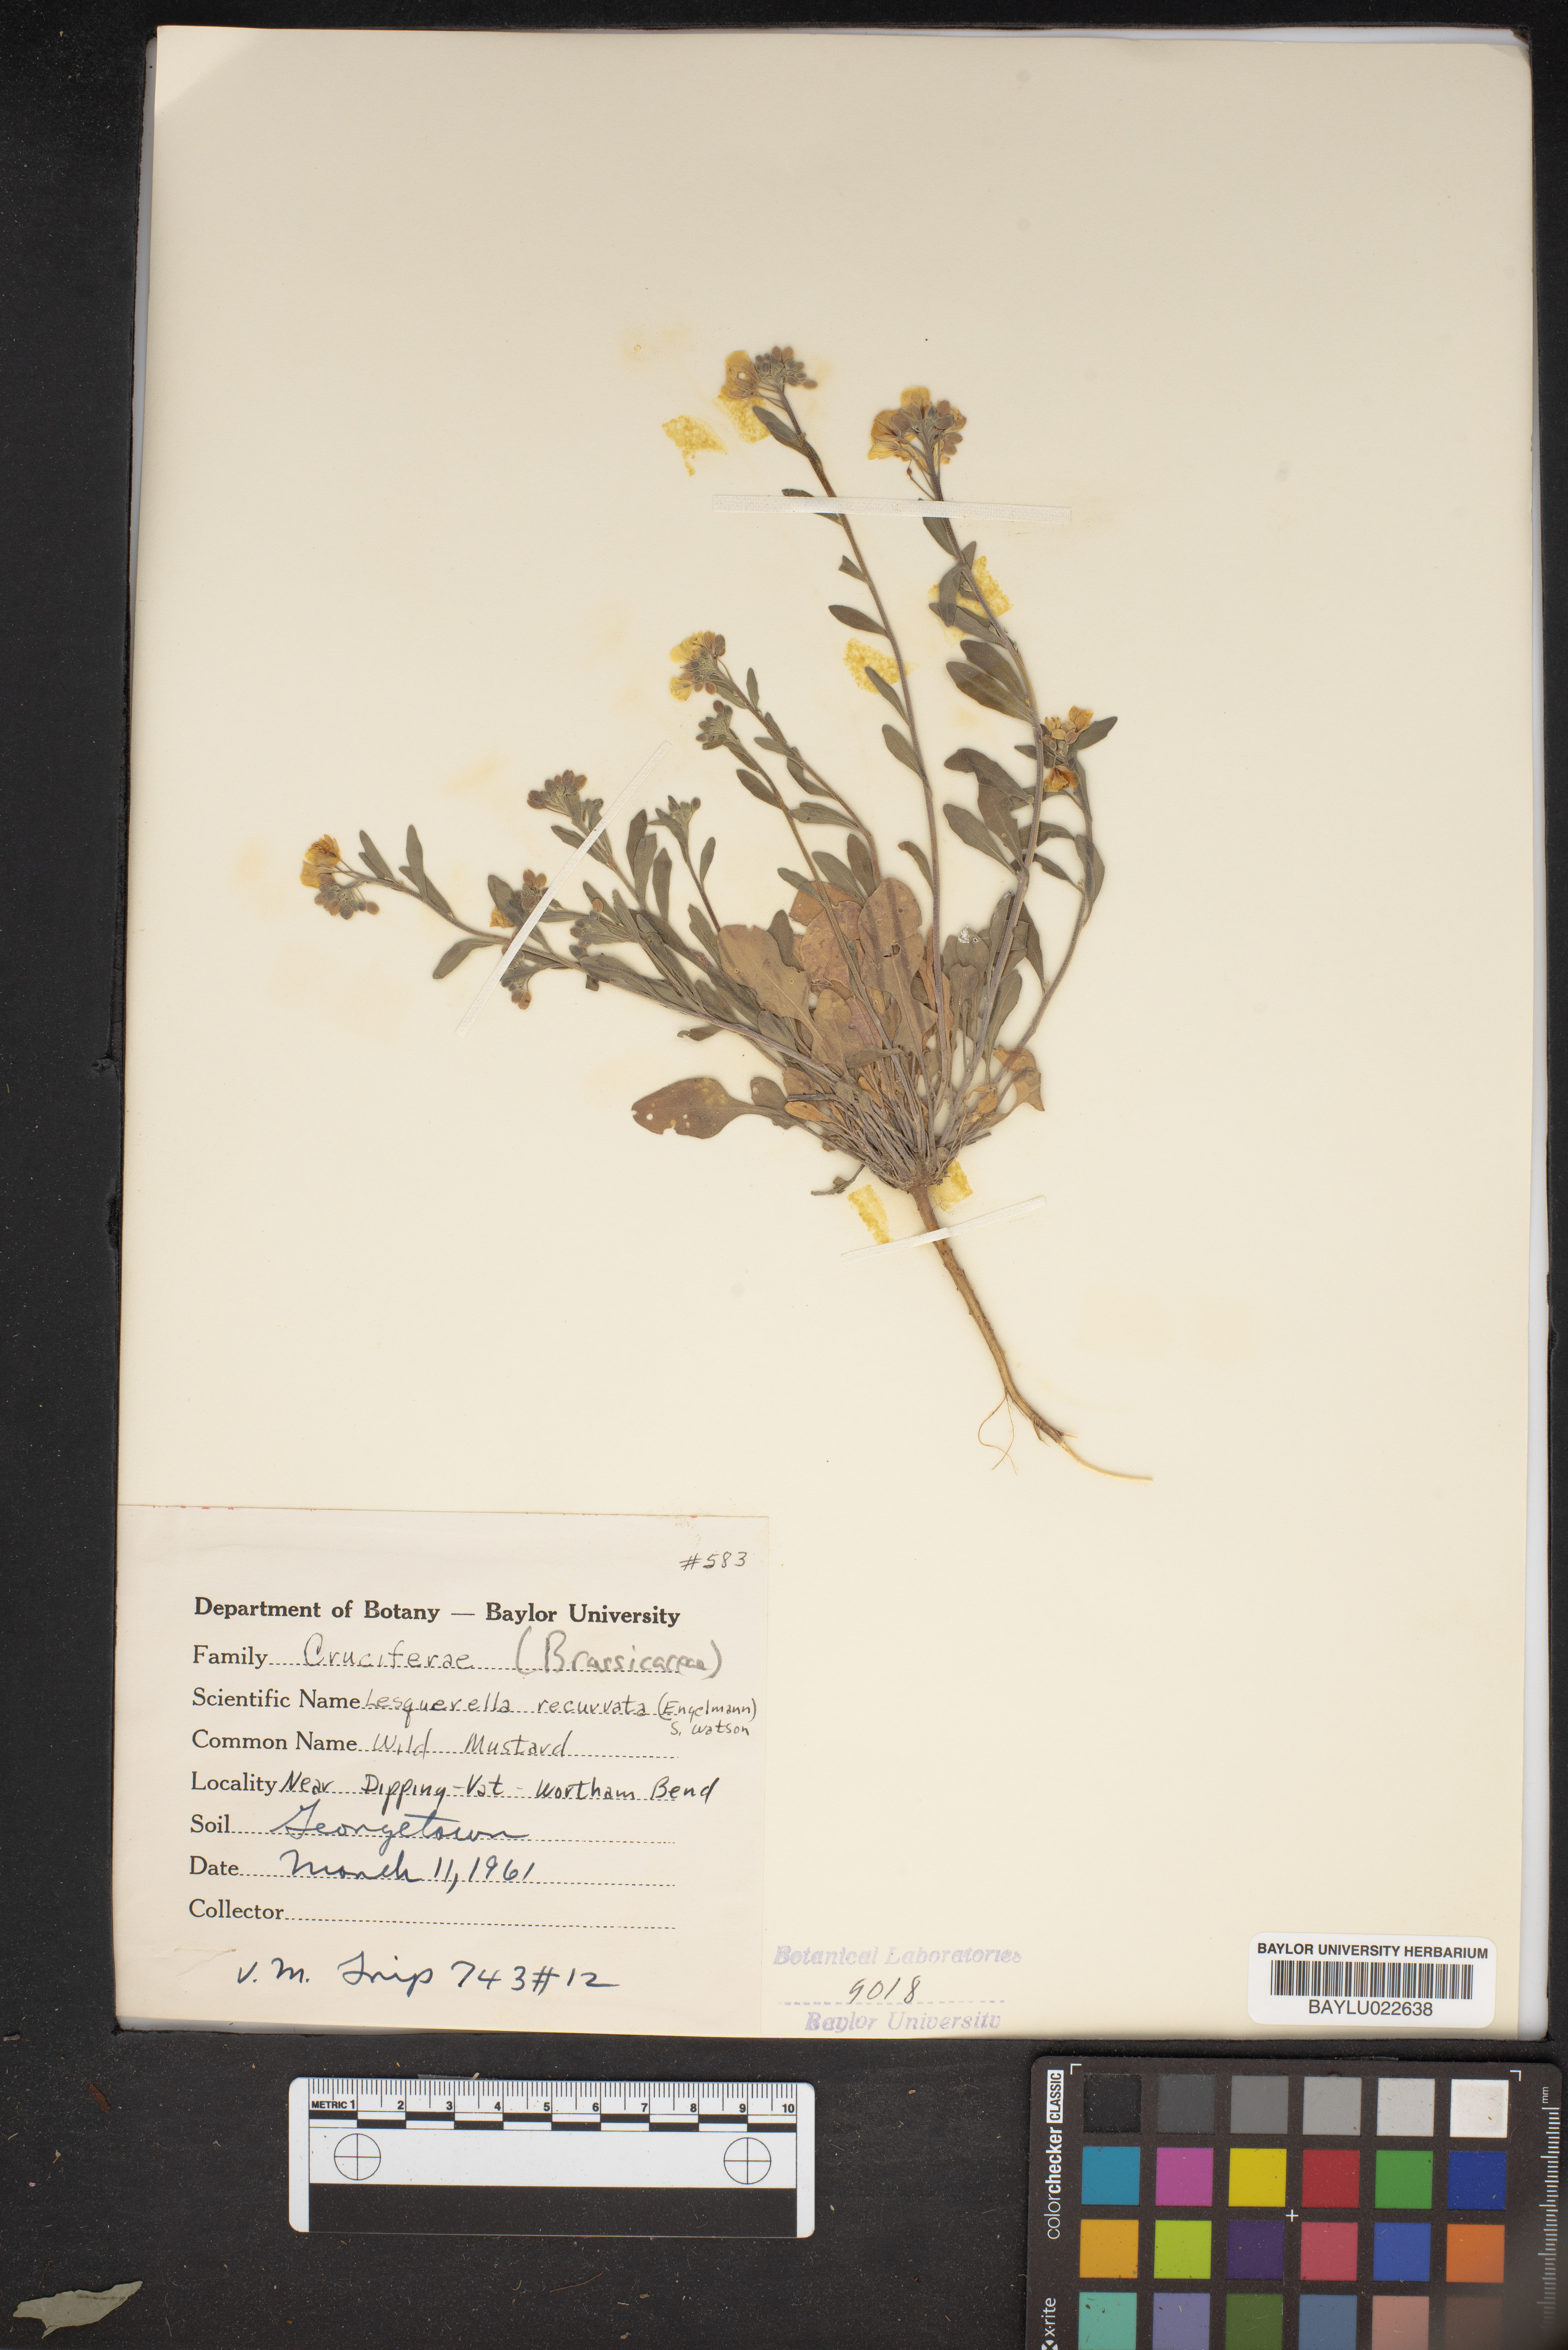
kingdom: Plantae
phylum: Tracheophyta
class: Magnoliopsida
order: Brassicales
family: Brassicaceae
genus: Physaria
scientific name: Physaria recurvata
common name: Gaslight bladderpod
